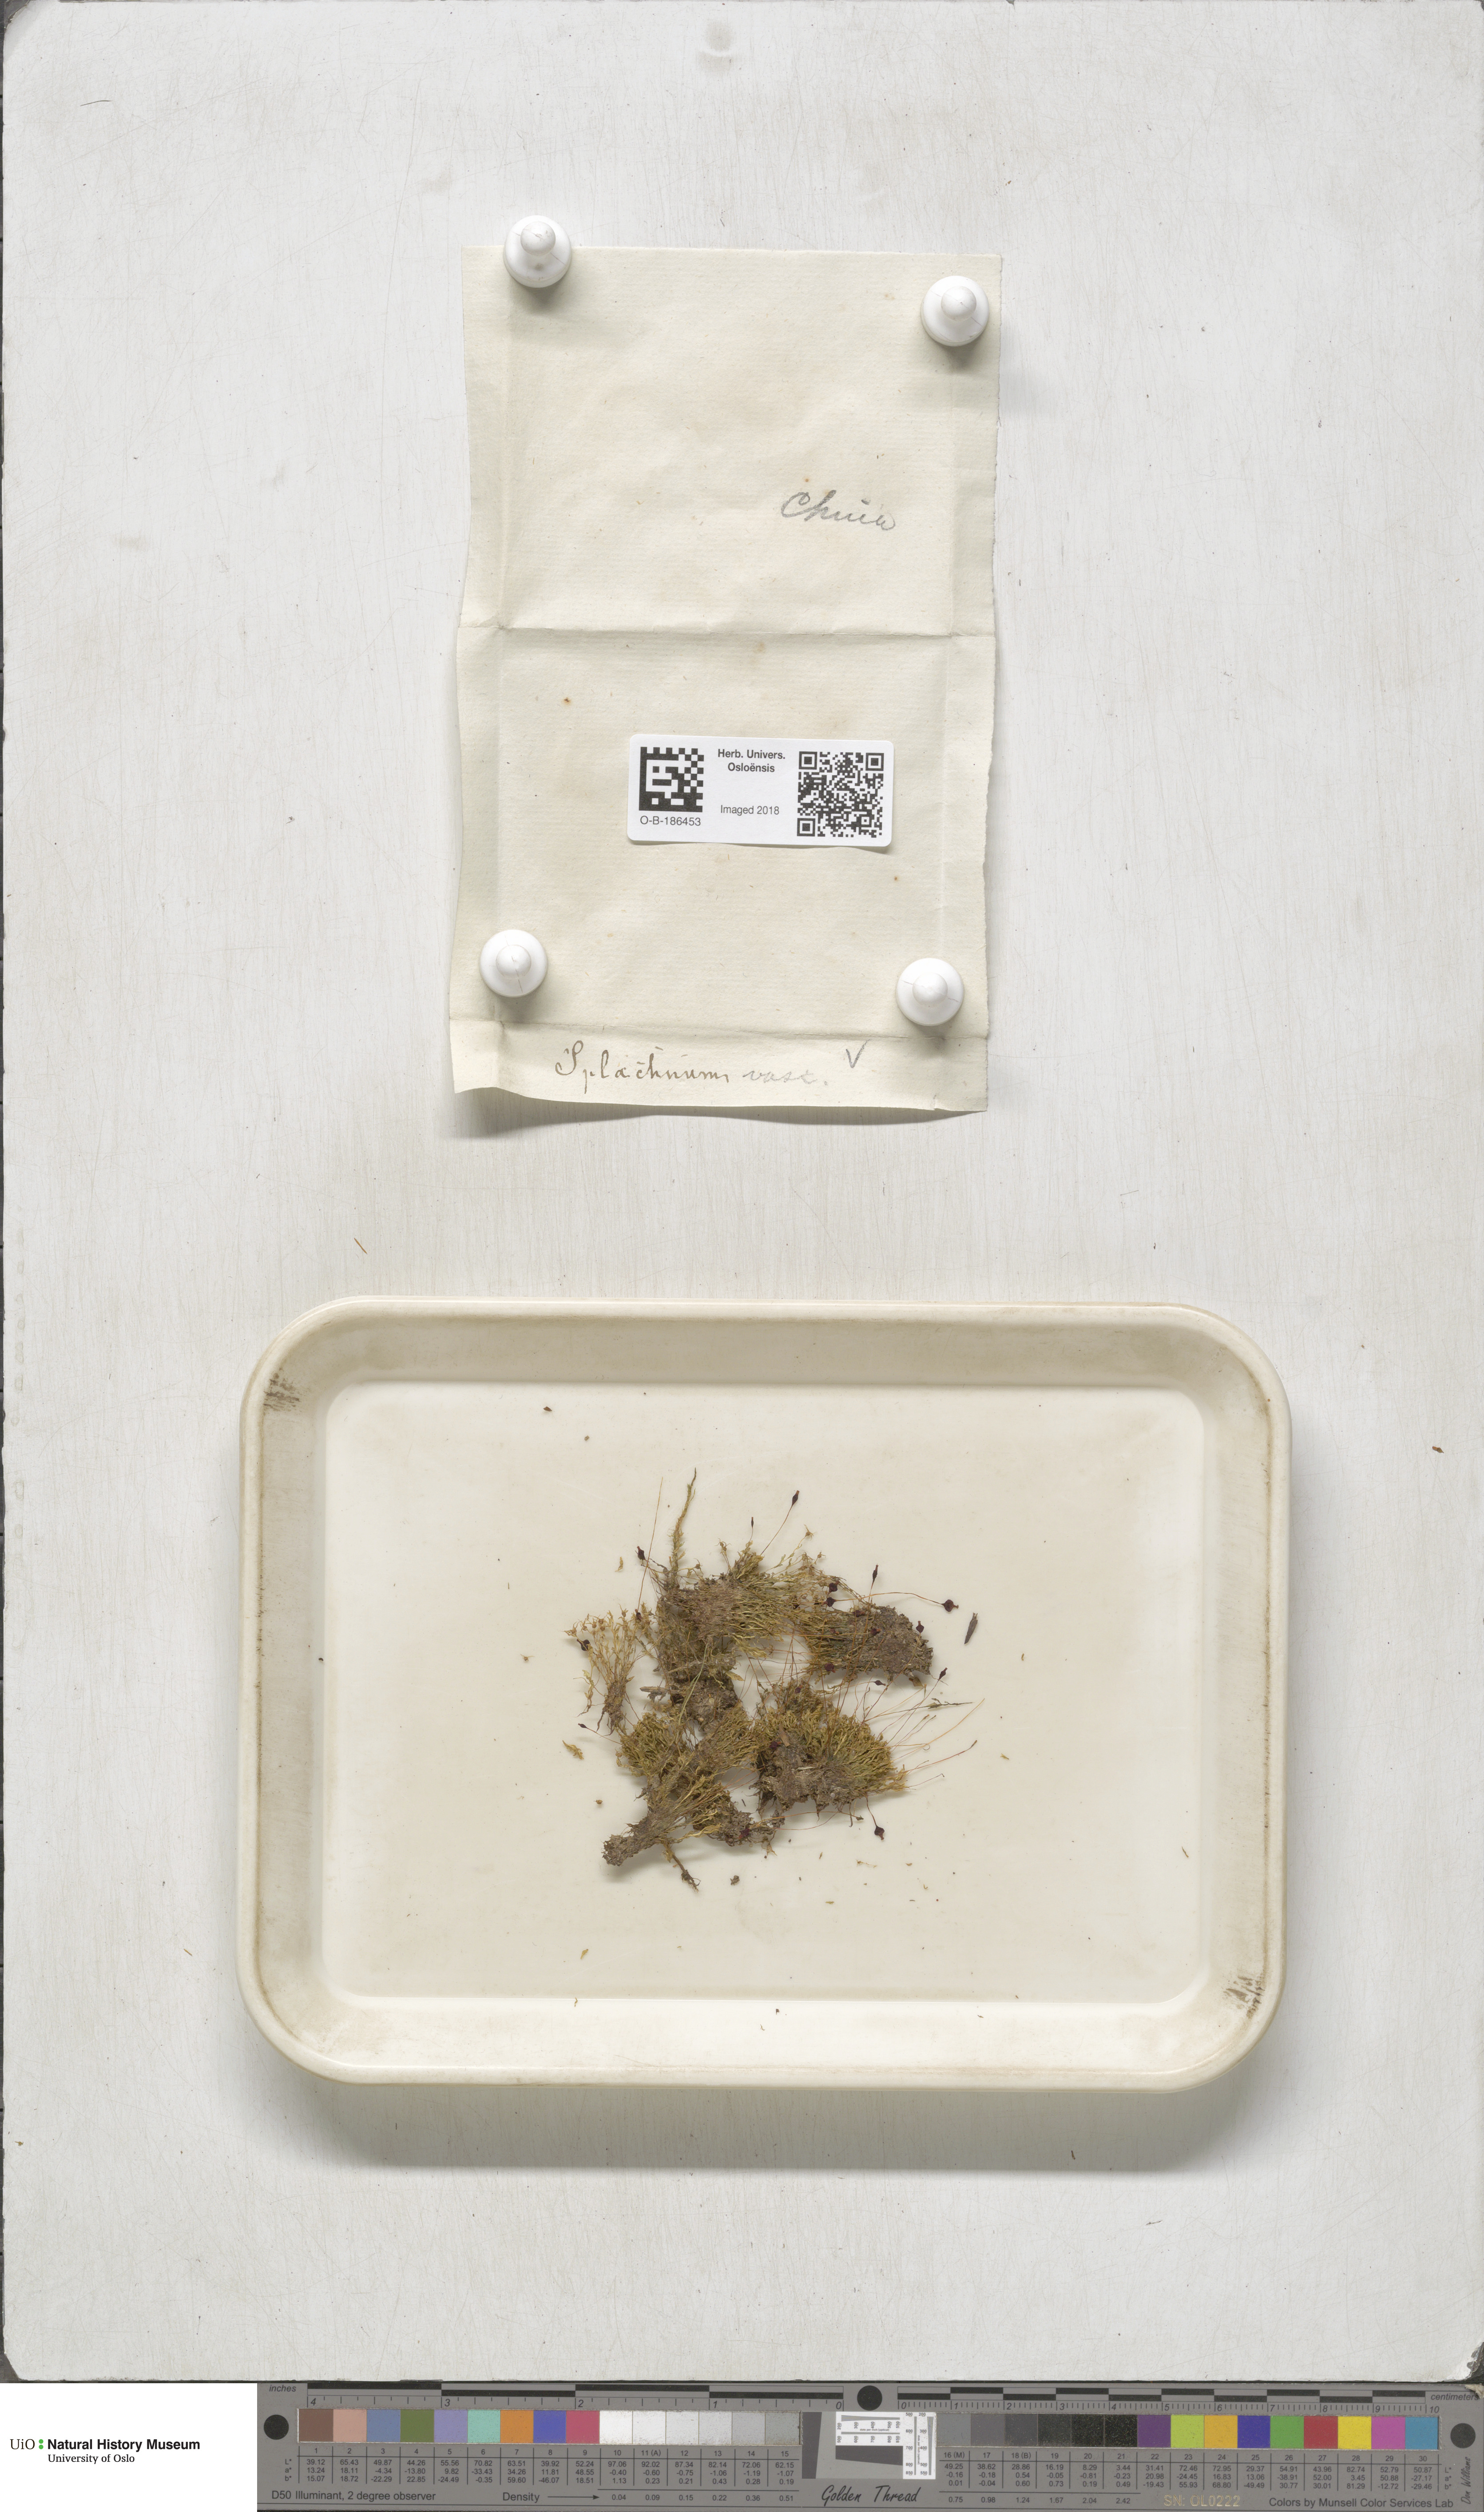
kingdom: Plantae
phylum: Bryophyta
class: Bryopsida
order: Splachnales
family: Splachnaceae
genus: Splachnum
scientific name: Splachnum vasculosum
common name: Rugged dung moss
